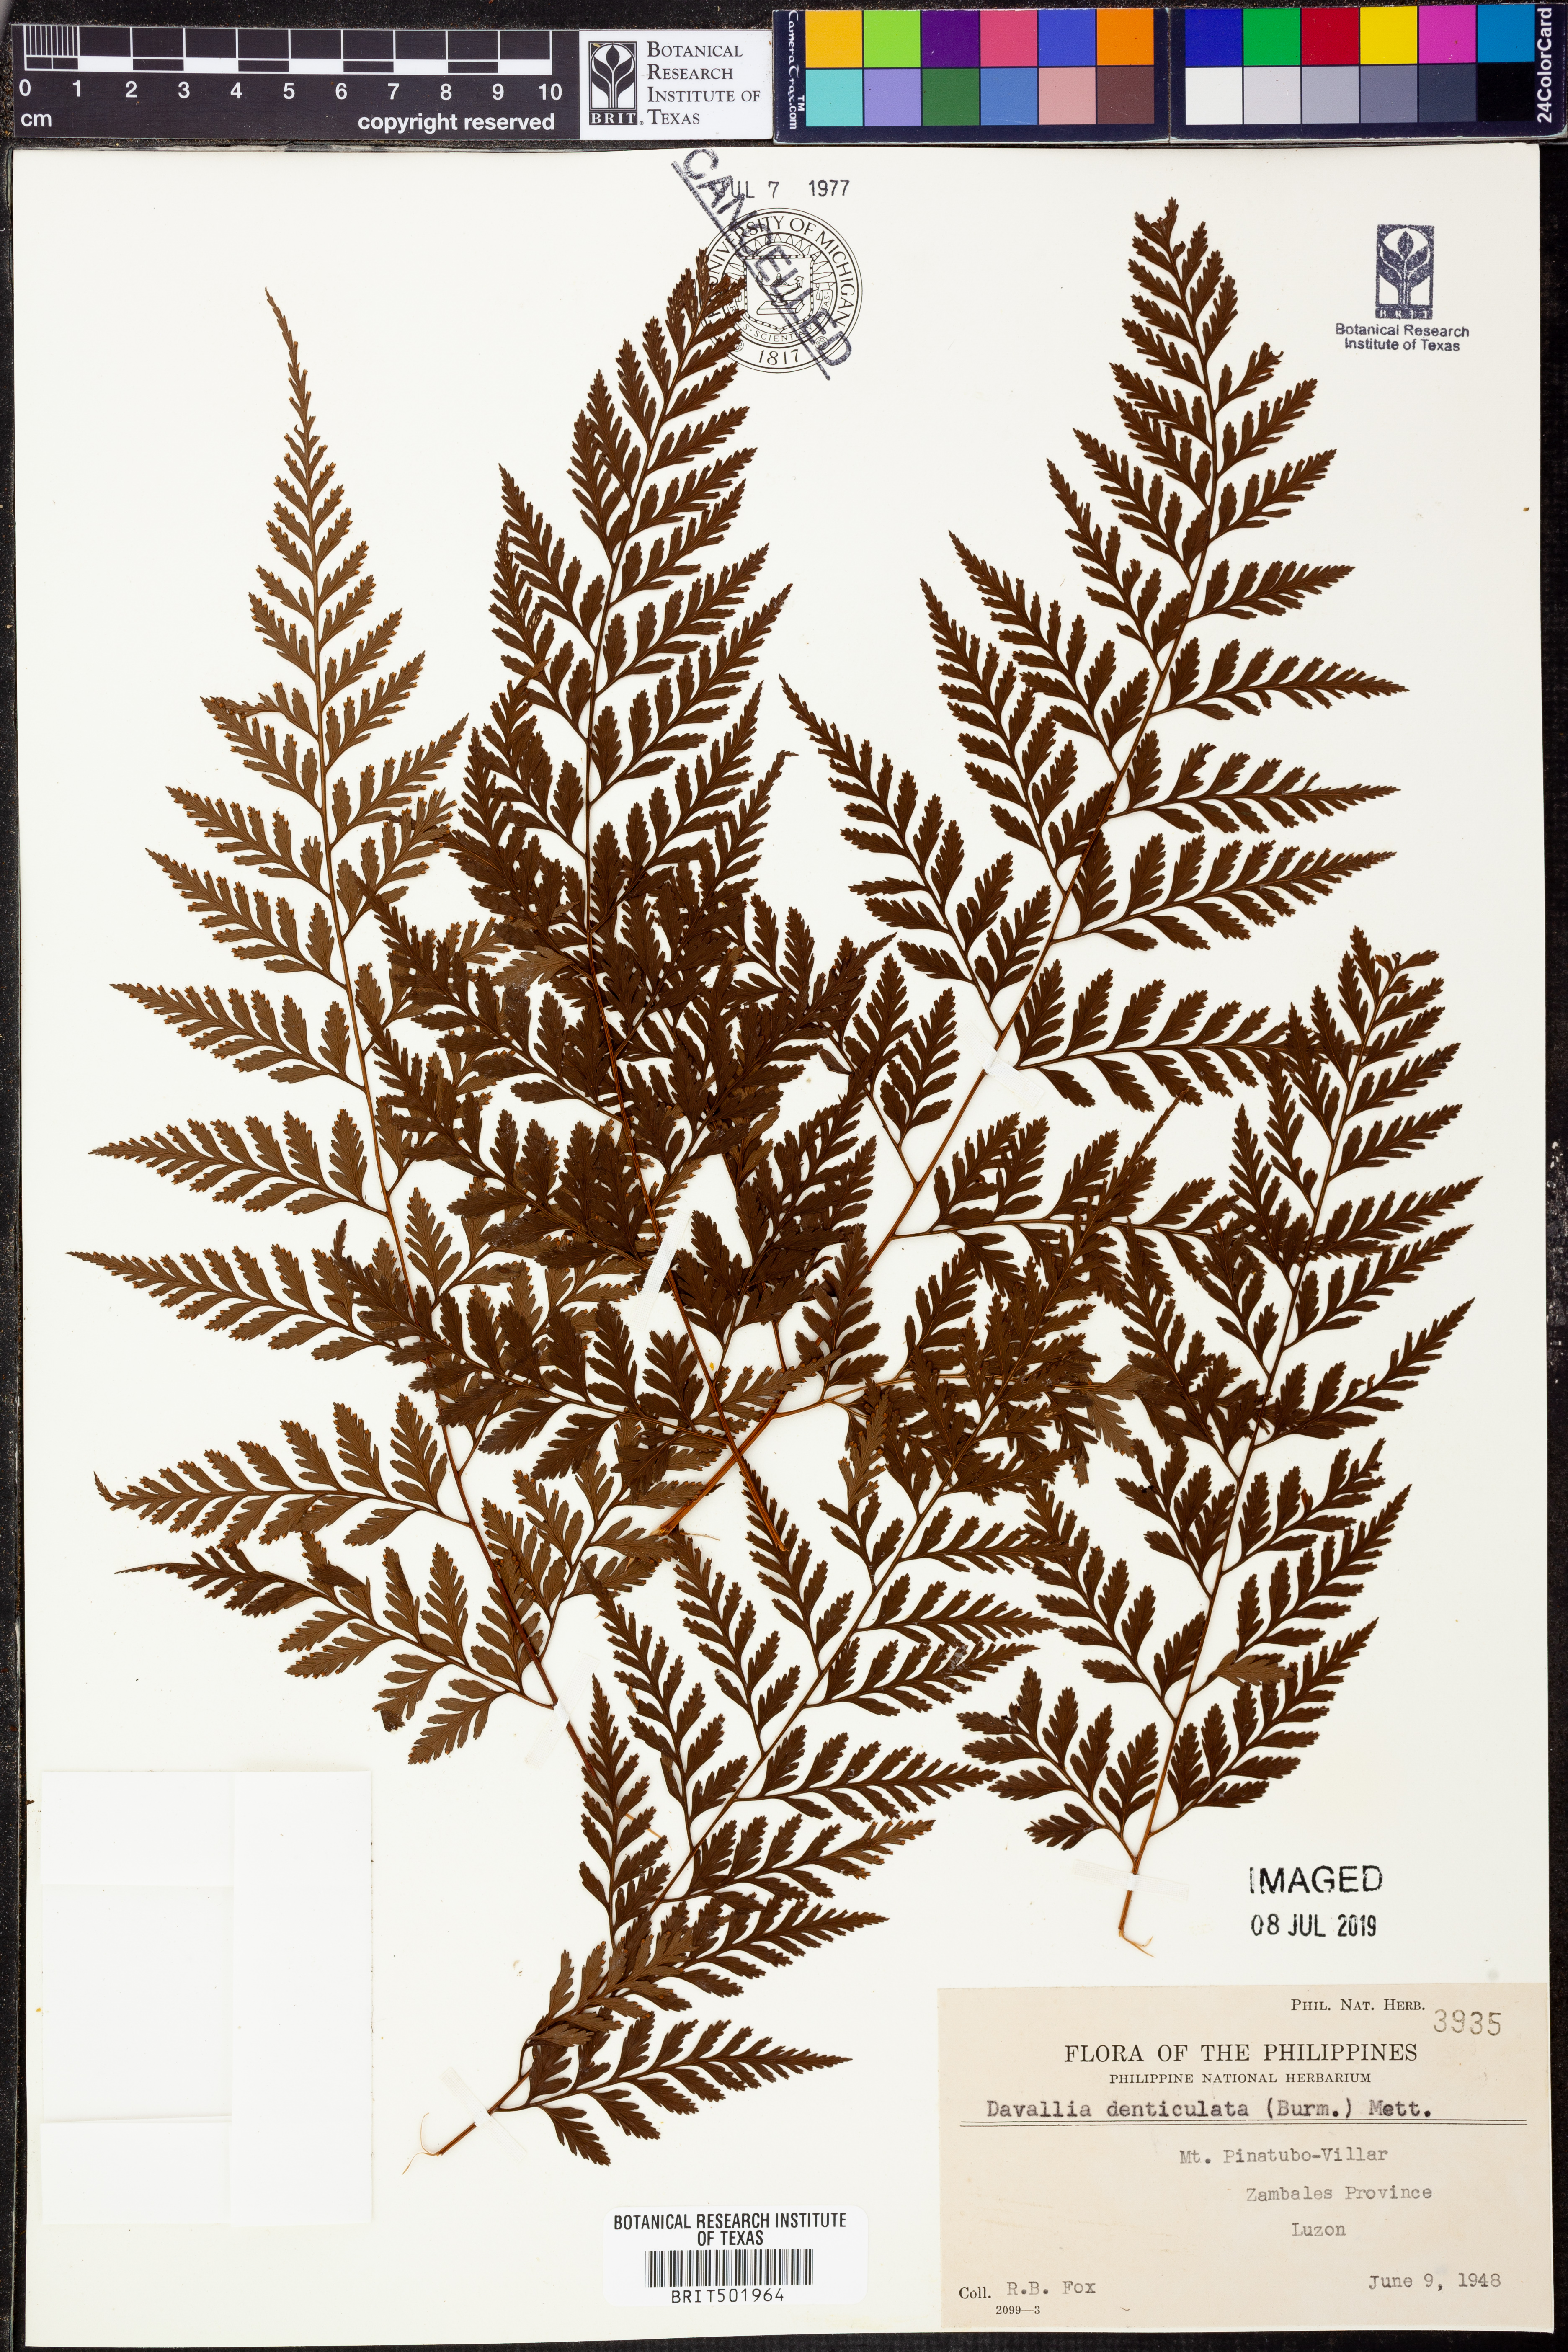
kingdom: Plantae
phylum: Tracheophyta
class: Polypodiopsida
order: Polypodiales
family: Davalliaceae
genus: Davallia
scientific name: Davallia denticulata
